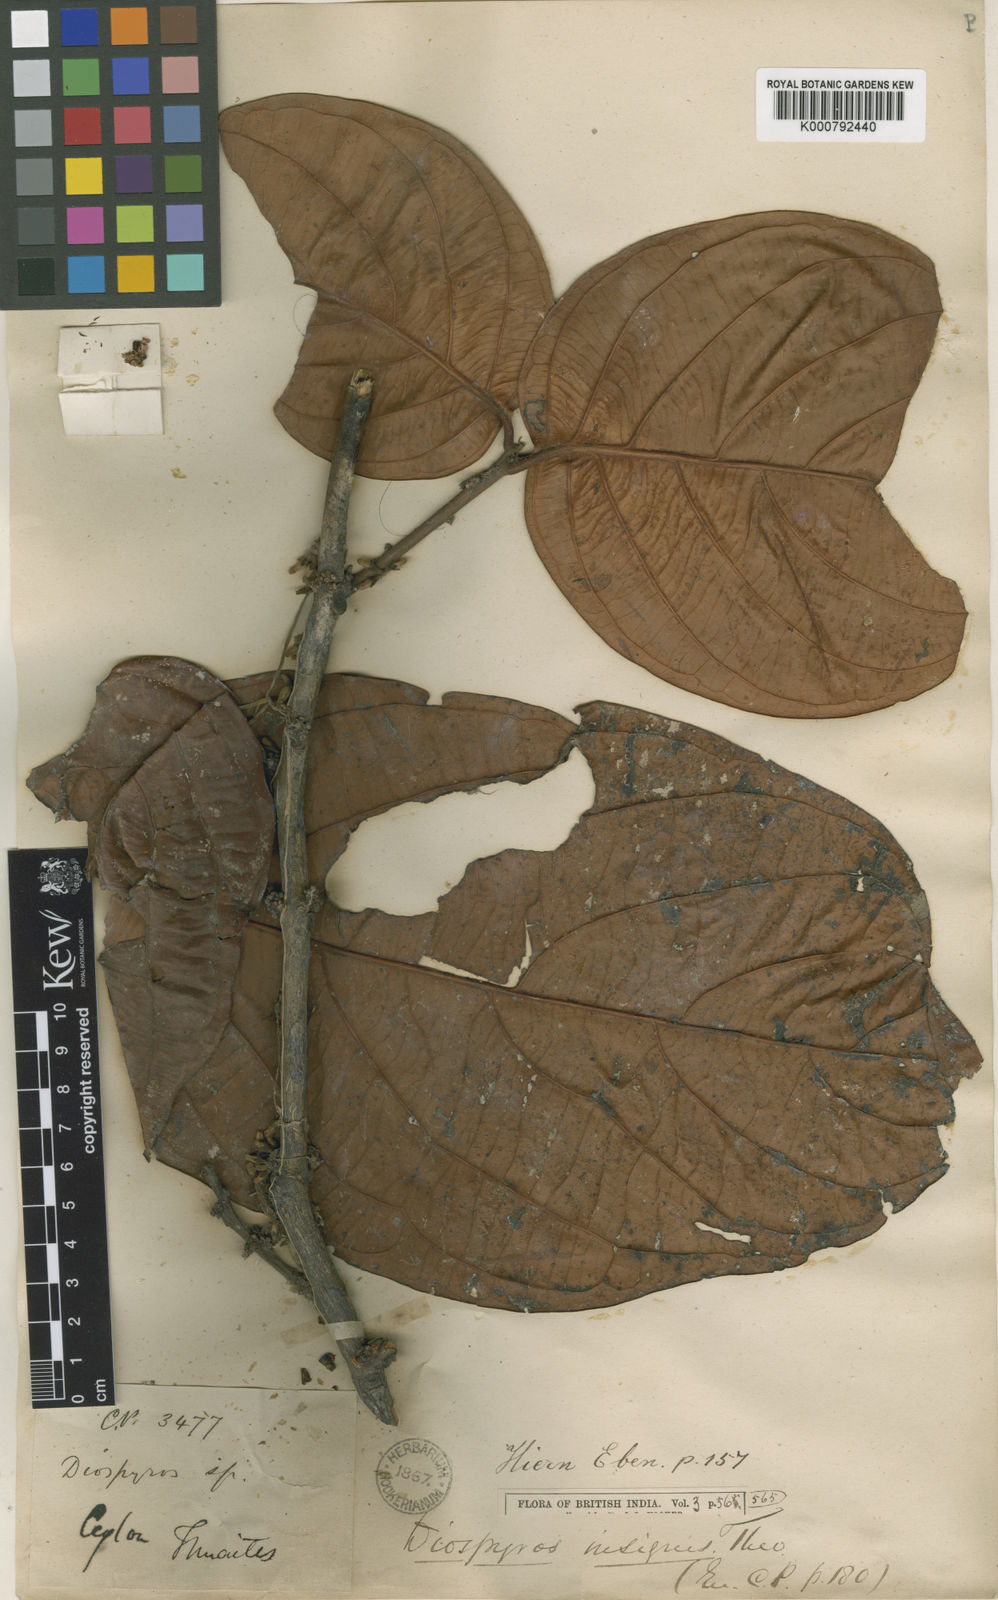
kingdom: Plantae
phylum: Tracheophyta
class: Magnoliopsida
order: Ericales
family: Ebenaceae
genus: Diospyros
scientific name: Diospyros insignis
